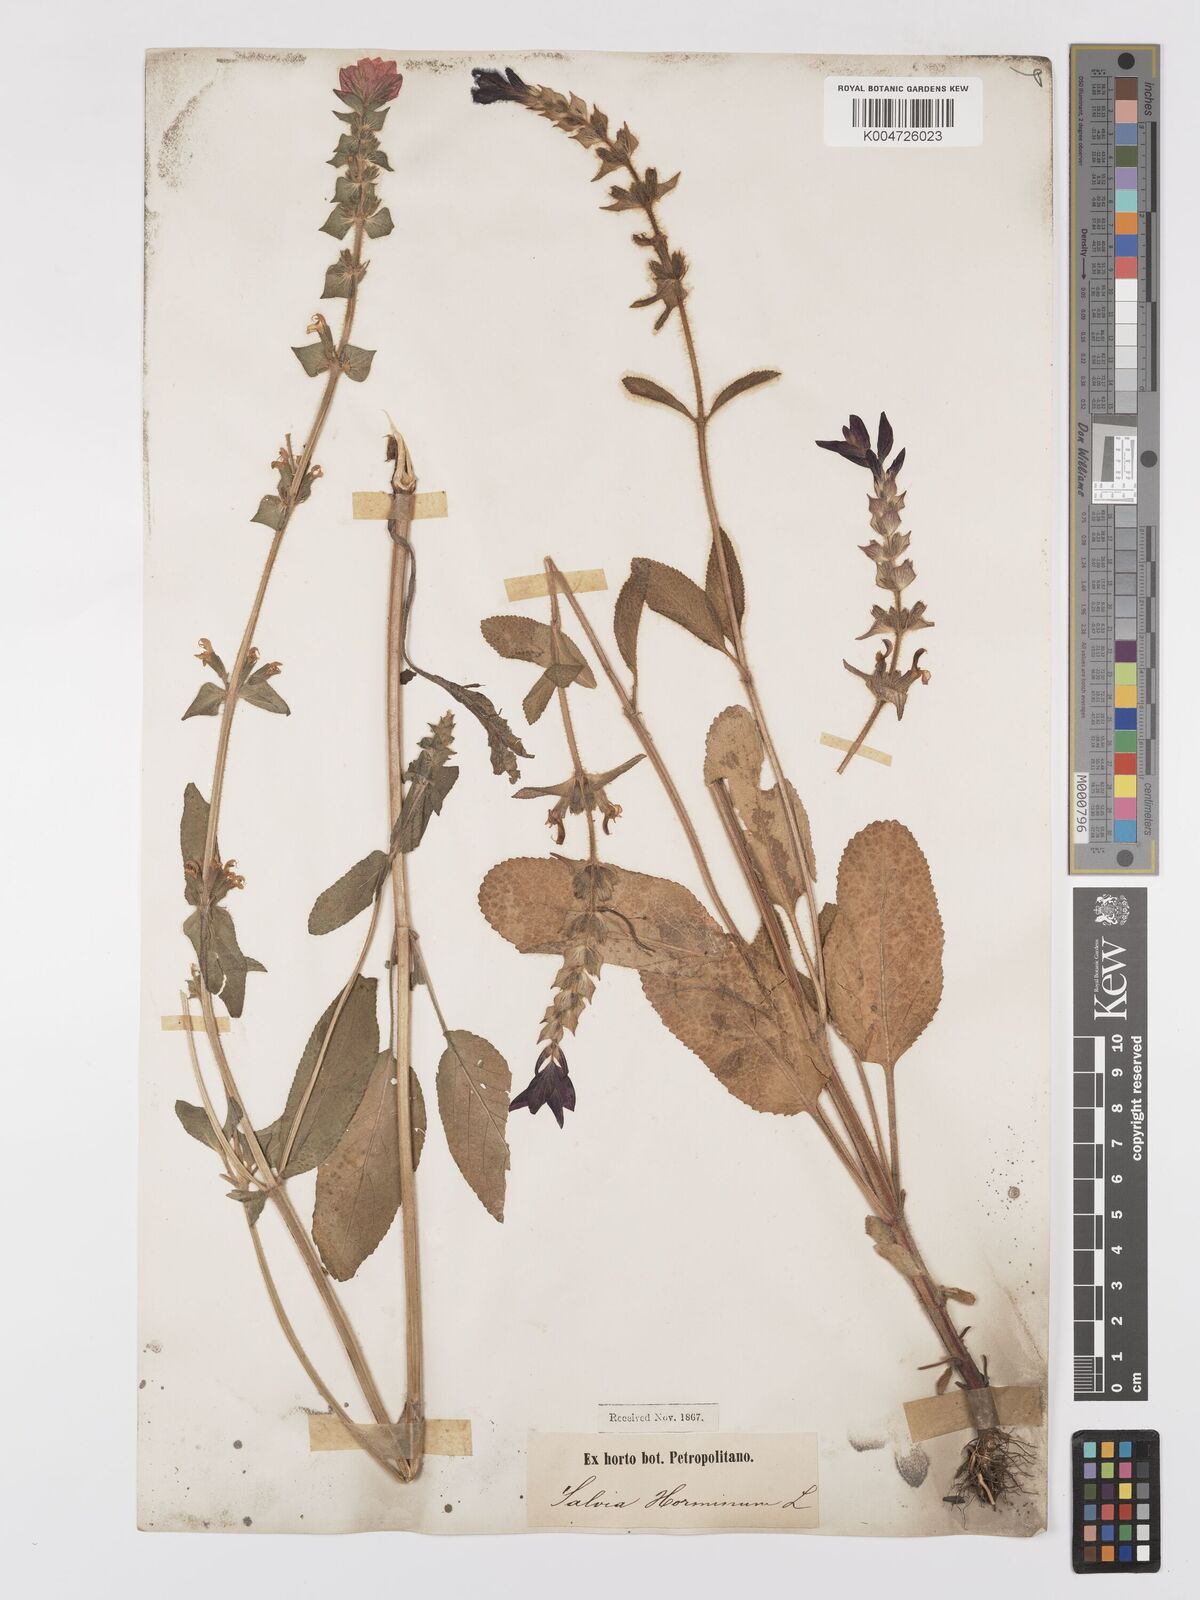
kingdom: Plantae
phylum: Tracheophyta
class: Magnoliopsida
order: Lamiales
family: Lamiaceae
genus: Salvia
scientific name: Salvia viridis
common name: Annual clary
